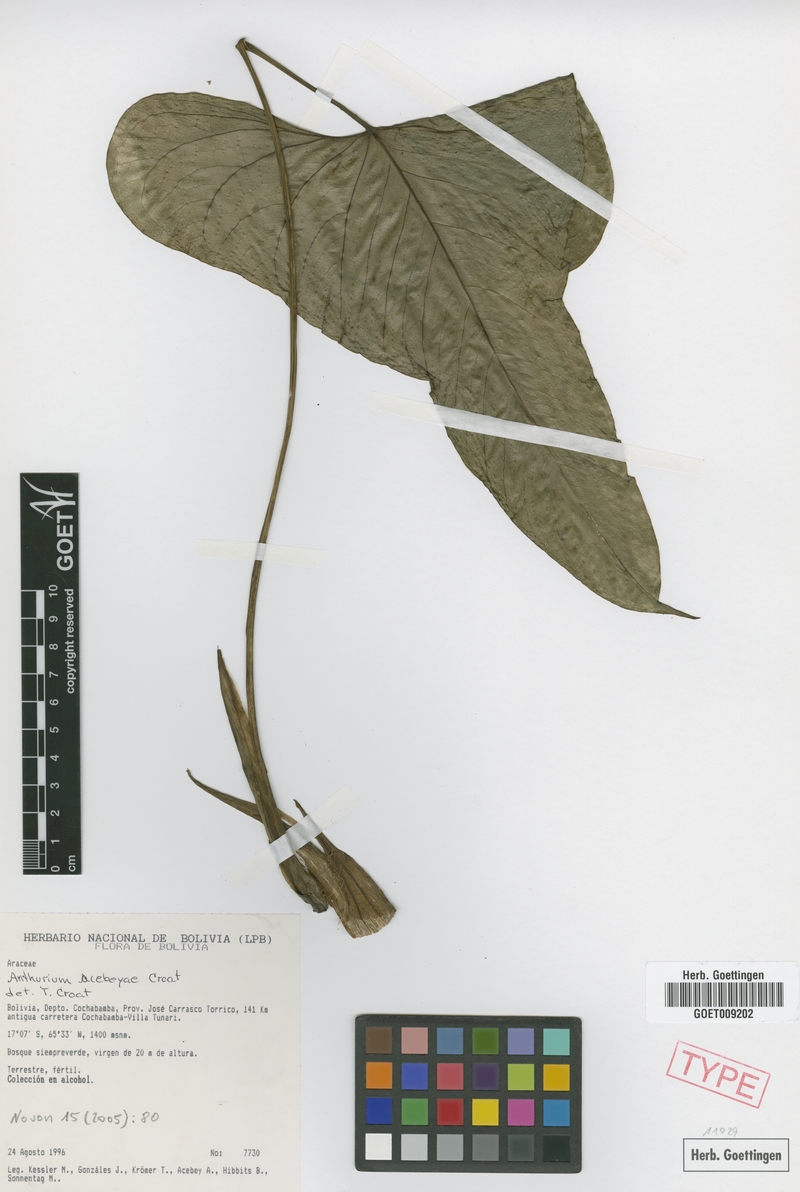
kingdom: Plantae
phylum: Tracheophyta
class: Liliopsida
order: Alismatales
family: Araceae
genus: Anthurium
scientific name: Anthurium acebeyae
